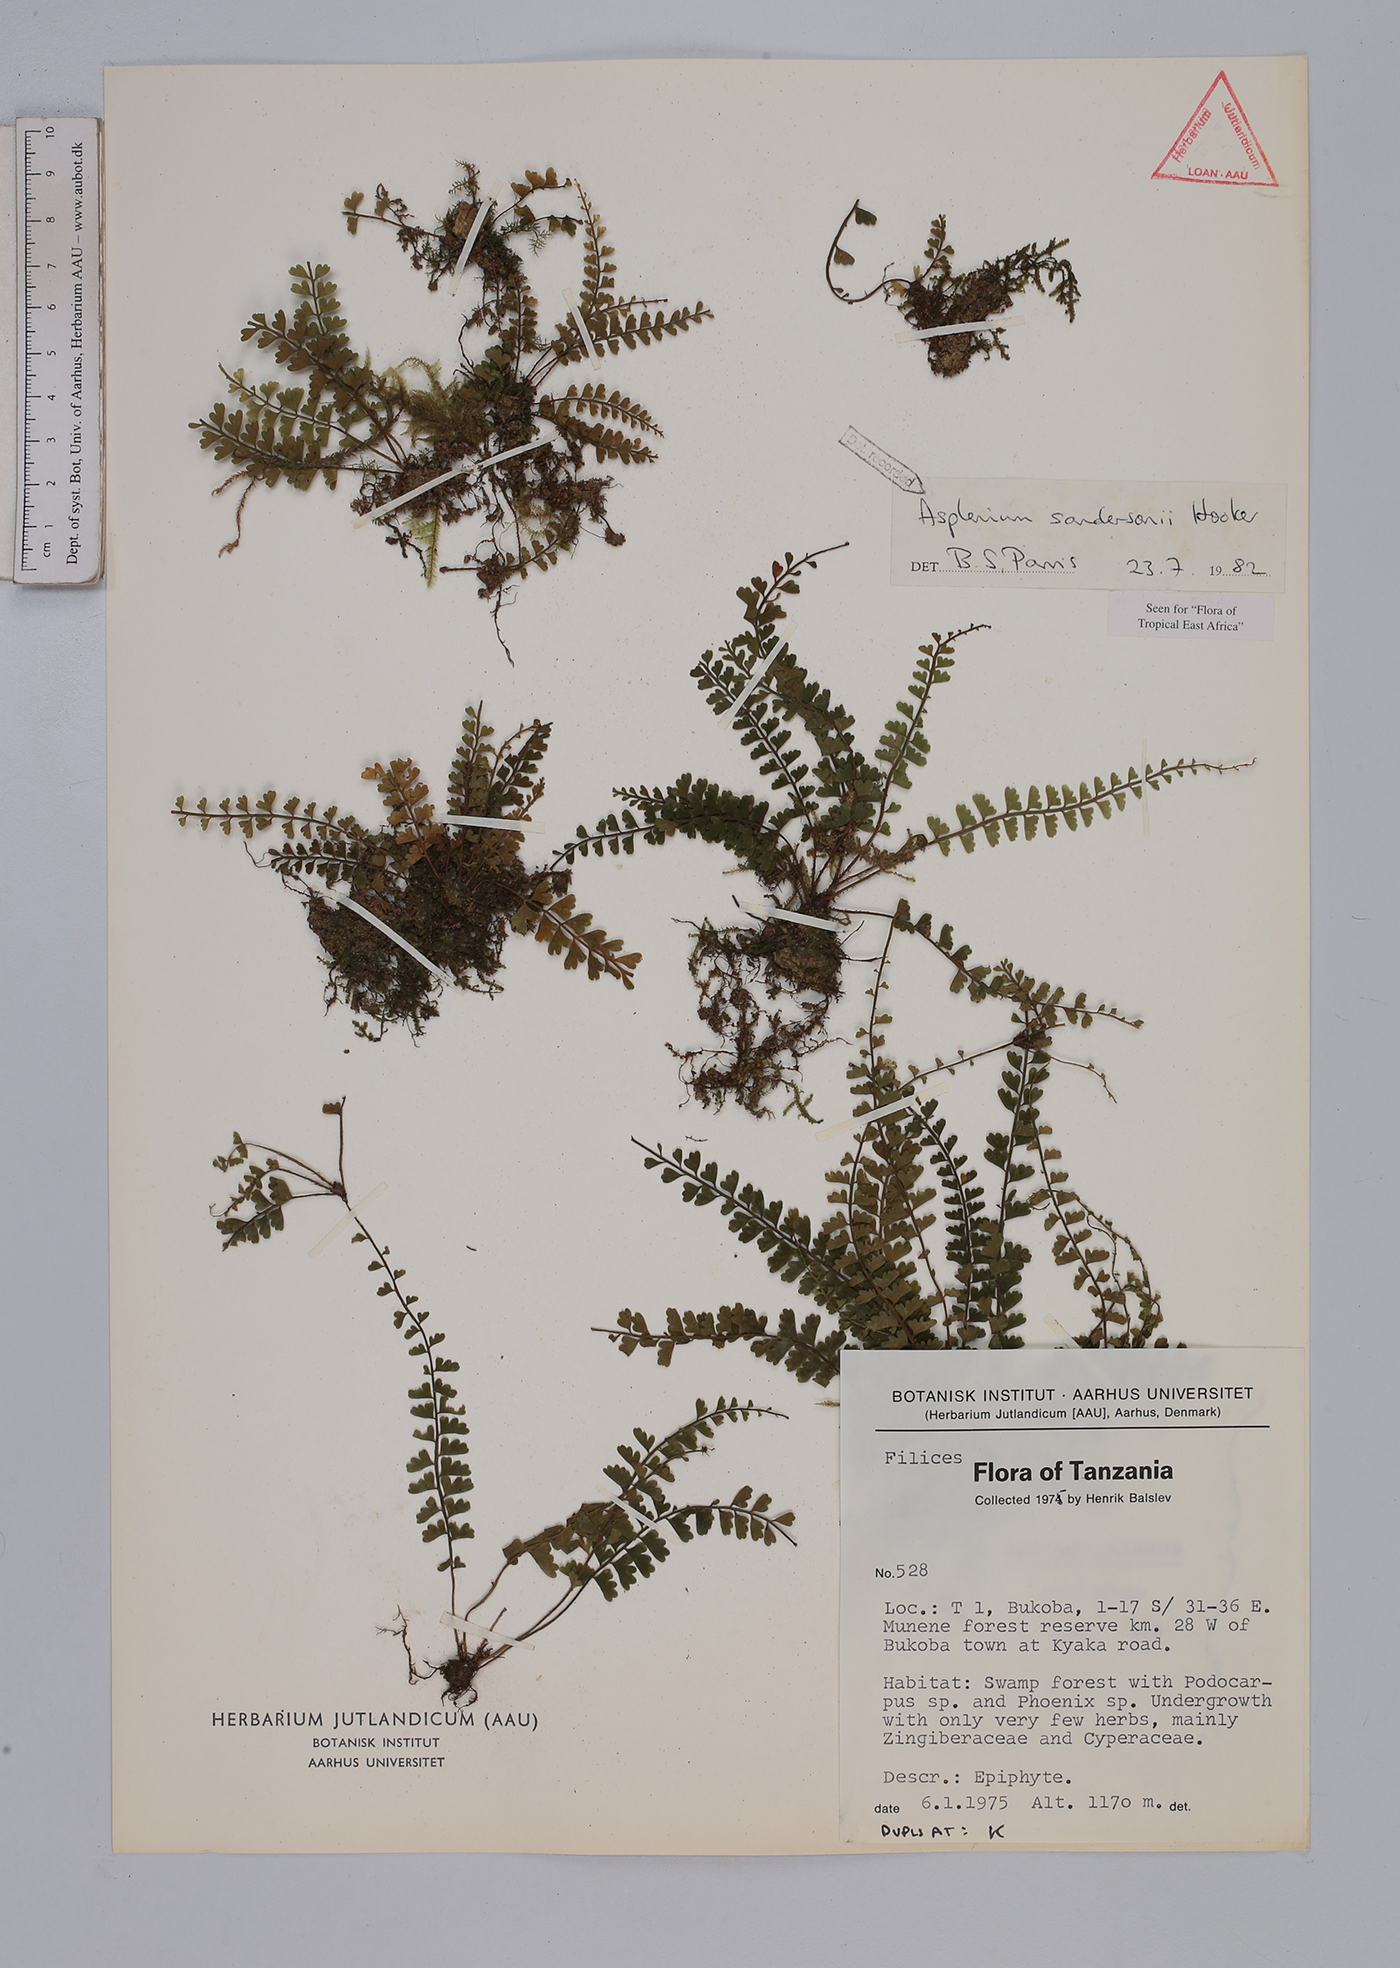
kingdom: Plantae
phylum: Tracheophyta
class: Polypodiopsida
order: Polypodiales
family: Aspleniaceae
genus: Asplenium
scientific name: Asplenium sandersonii
